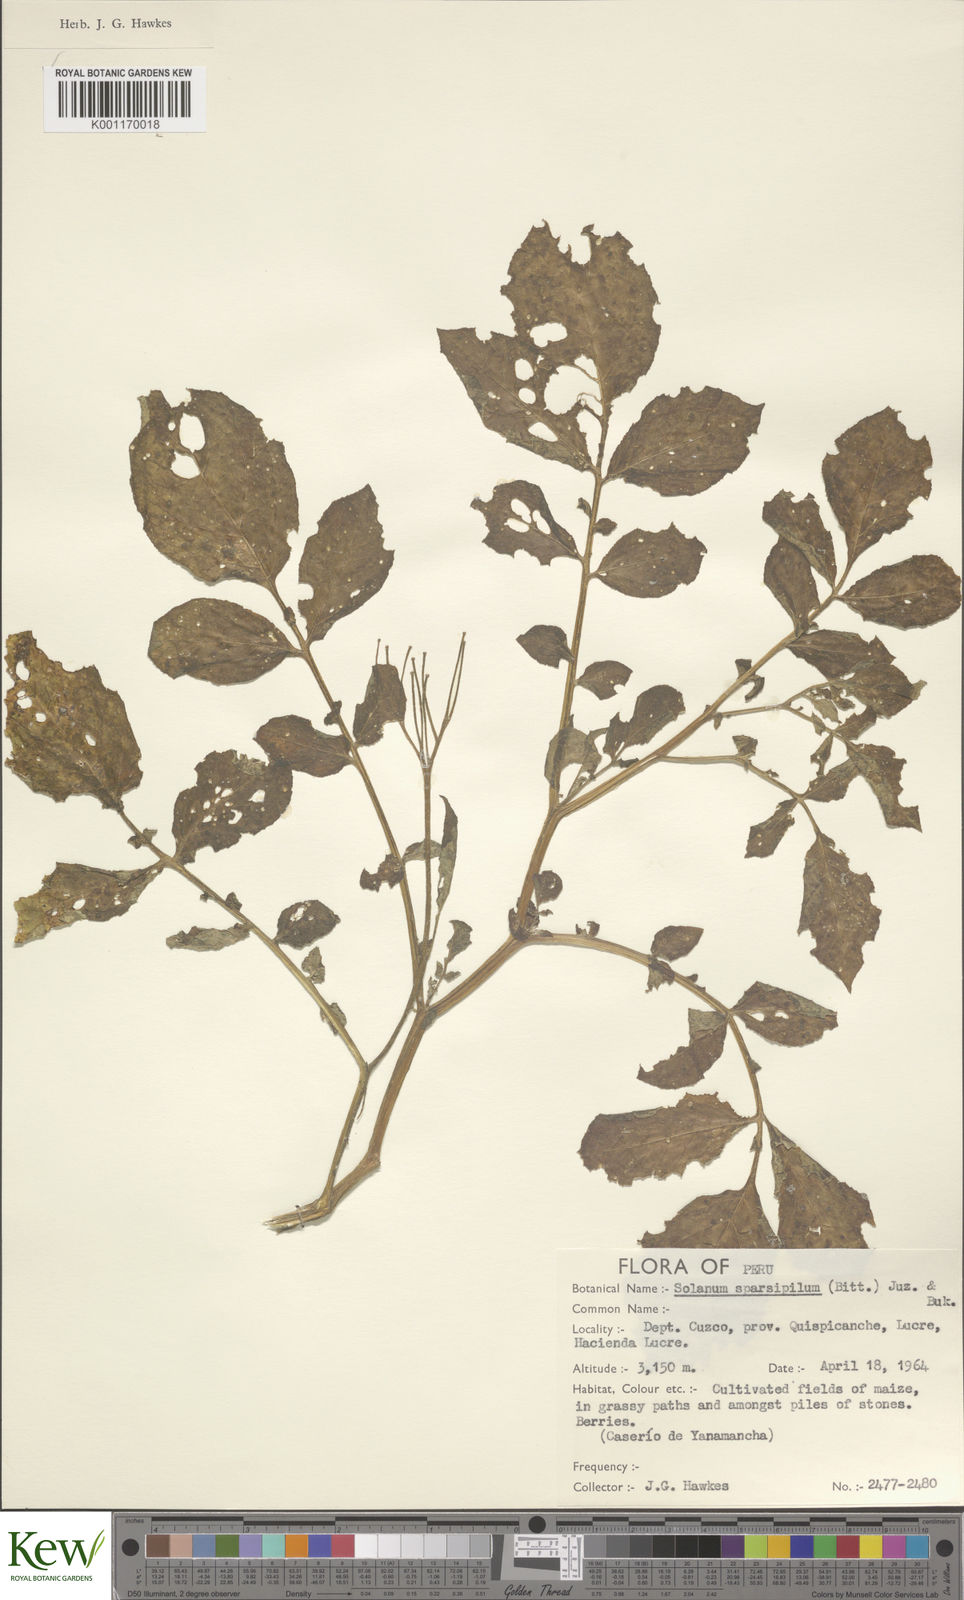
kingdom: Plantae
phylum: Tracheophyta
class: Magnoliopsida
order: Solanales
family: Solanaceae
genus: Solanum
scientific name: Solanum brevicaule
